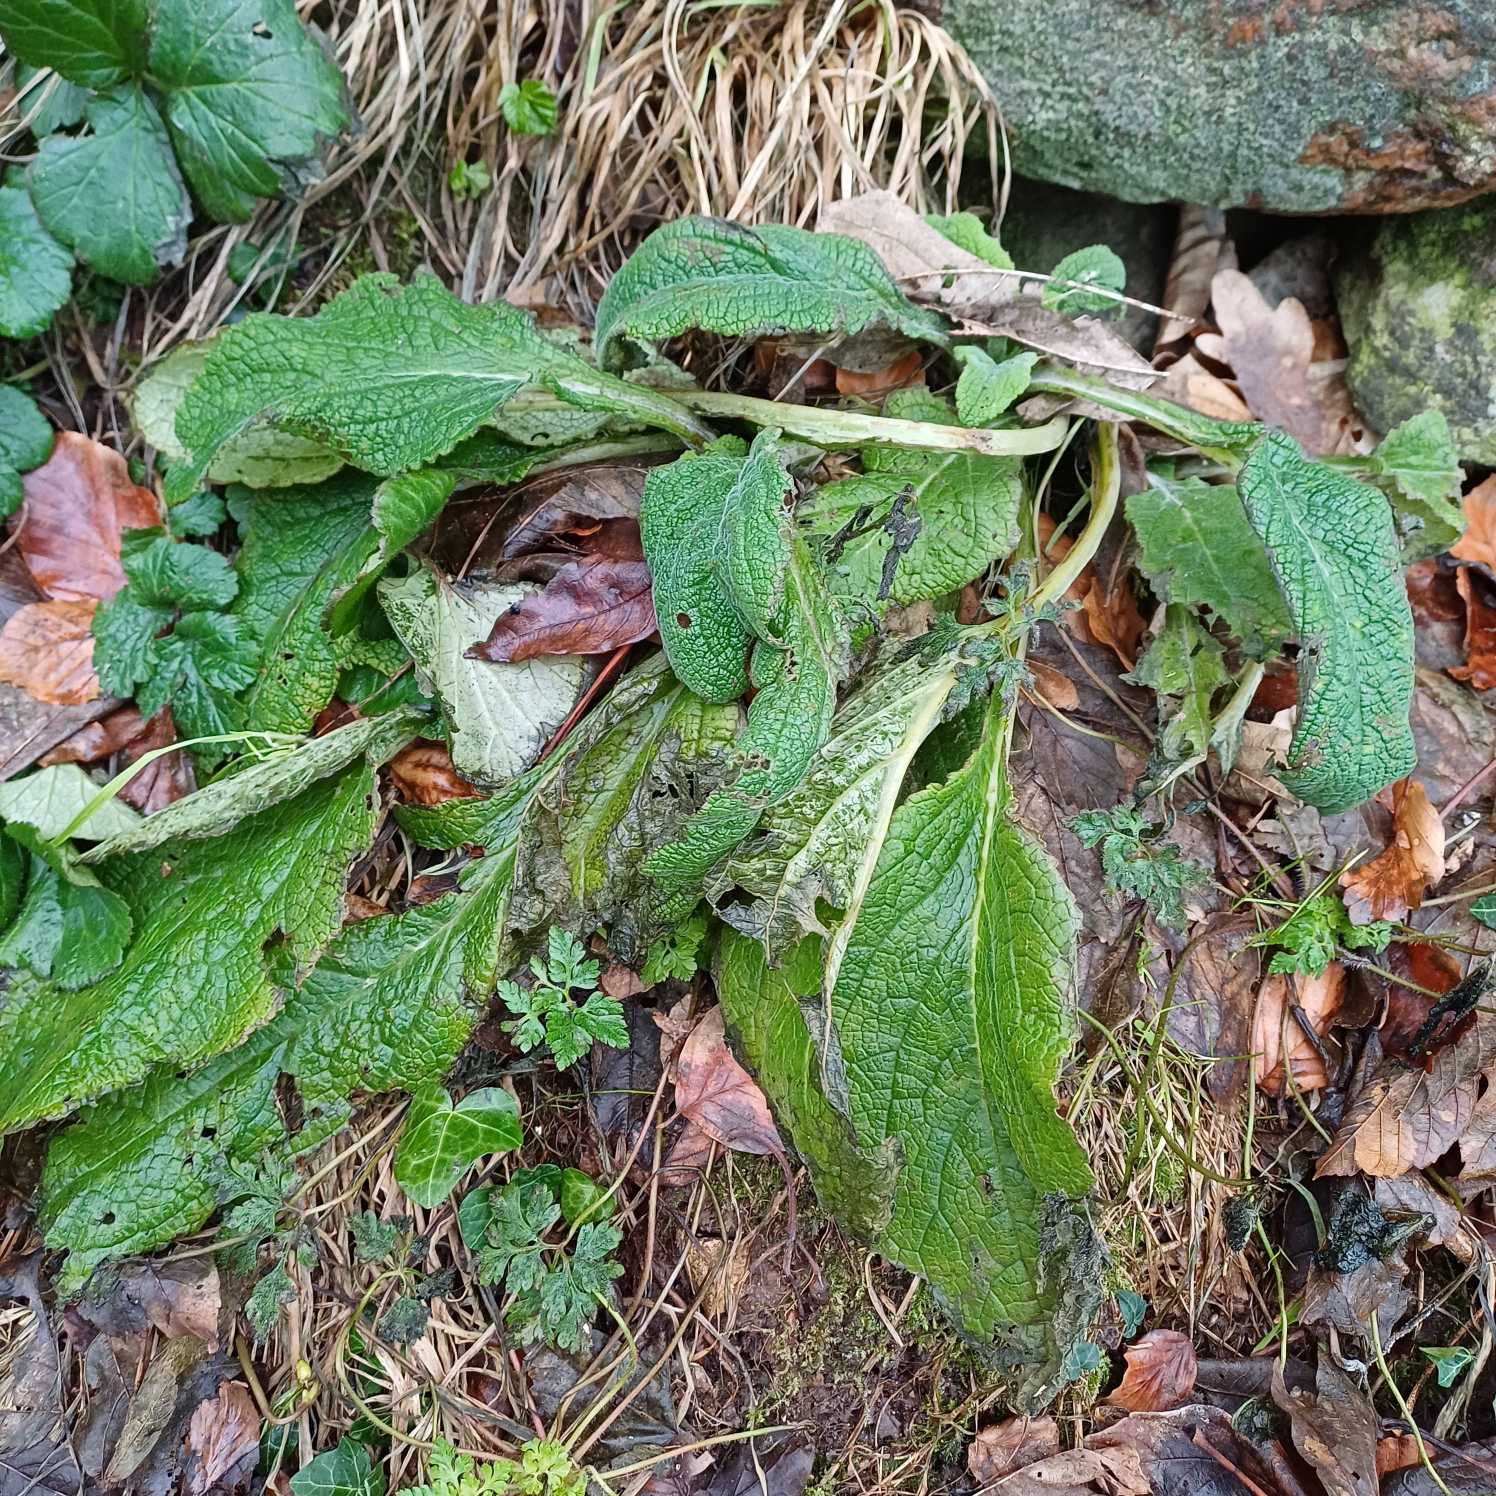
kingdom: Plantae
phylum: Tracheophyta
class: Magnoliopsida
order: Lamiales
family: Plantaginaceae
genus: Digitalis
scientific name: Digitalis purpurea
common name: Almindelig fingerbøl
